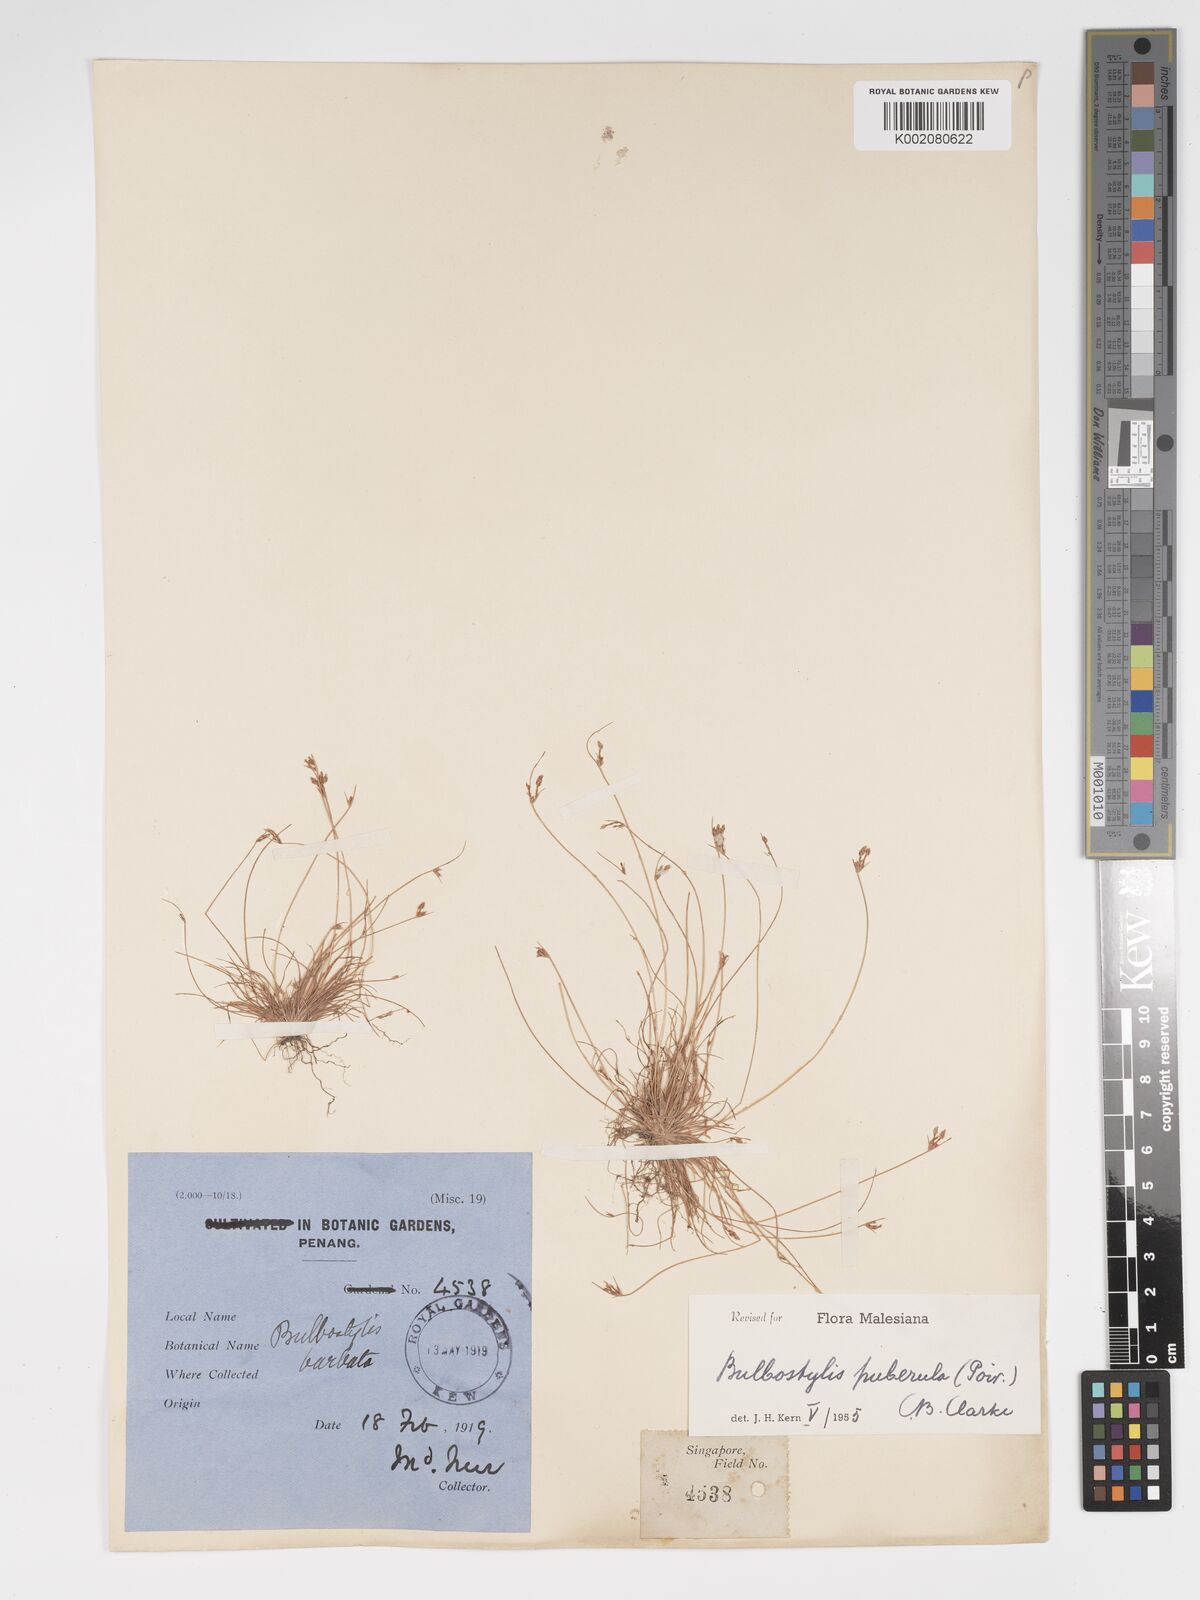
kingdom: Plantae
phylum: Tracheophyta
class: Liliopsida
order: Poales
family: Cyperaceae
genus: Bulbostylis
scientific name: Bulbostylis thouarsii
